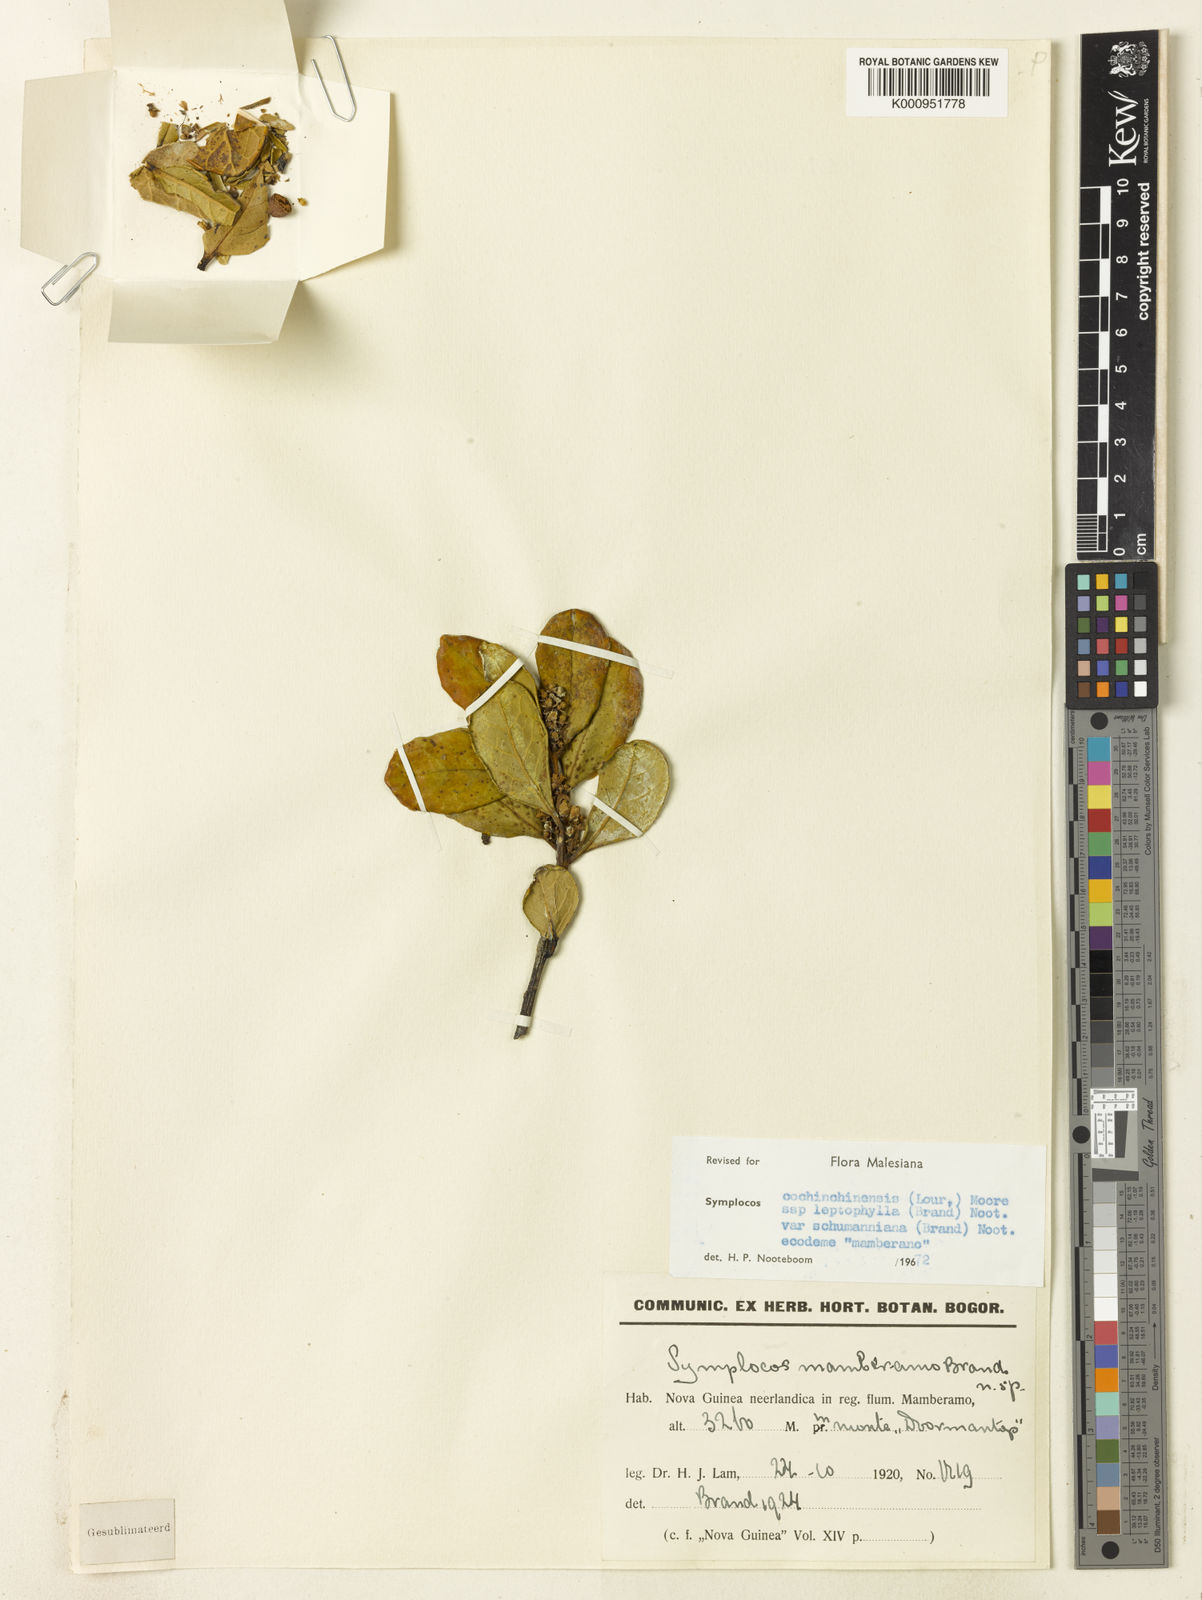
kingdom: Plantae
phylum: Tracheophyta
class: Magnoliopsida
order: Ericales
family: Symplocaceae
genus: Symplocos
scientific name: Symplocos cochinchinensis
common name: Buff hazelwood
